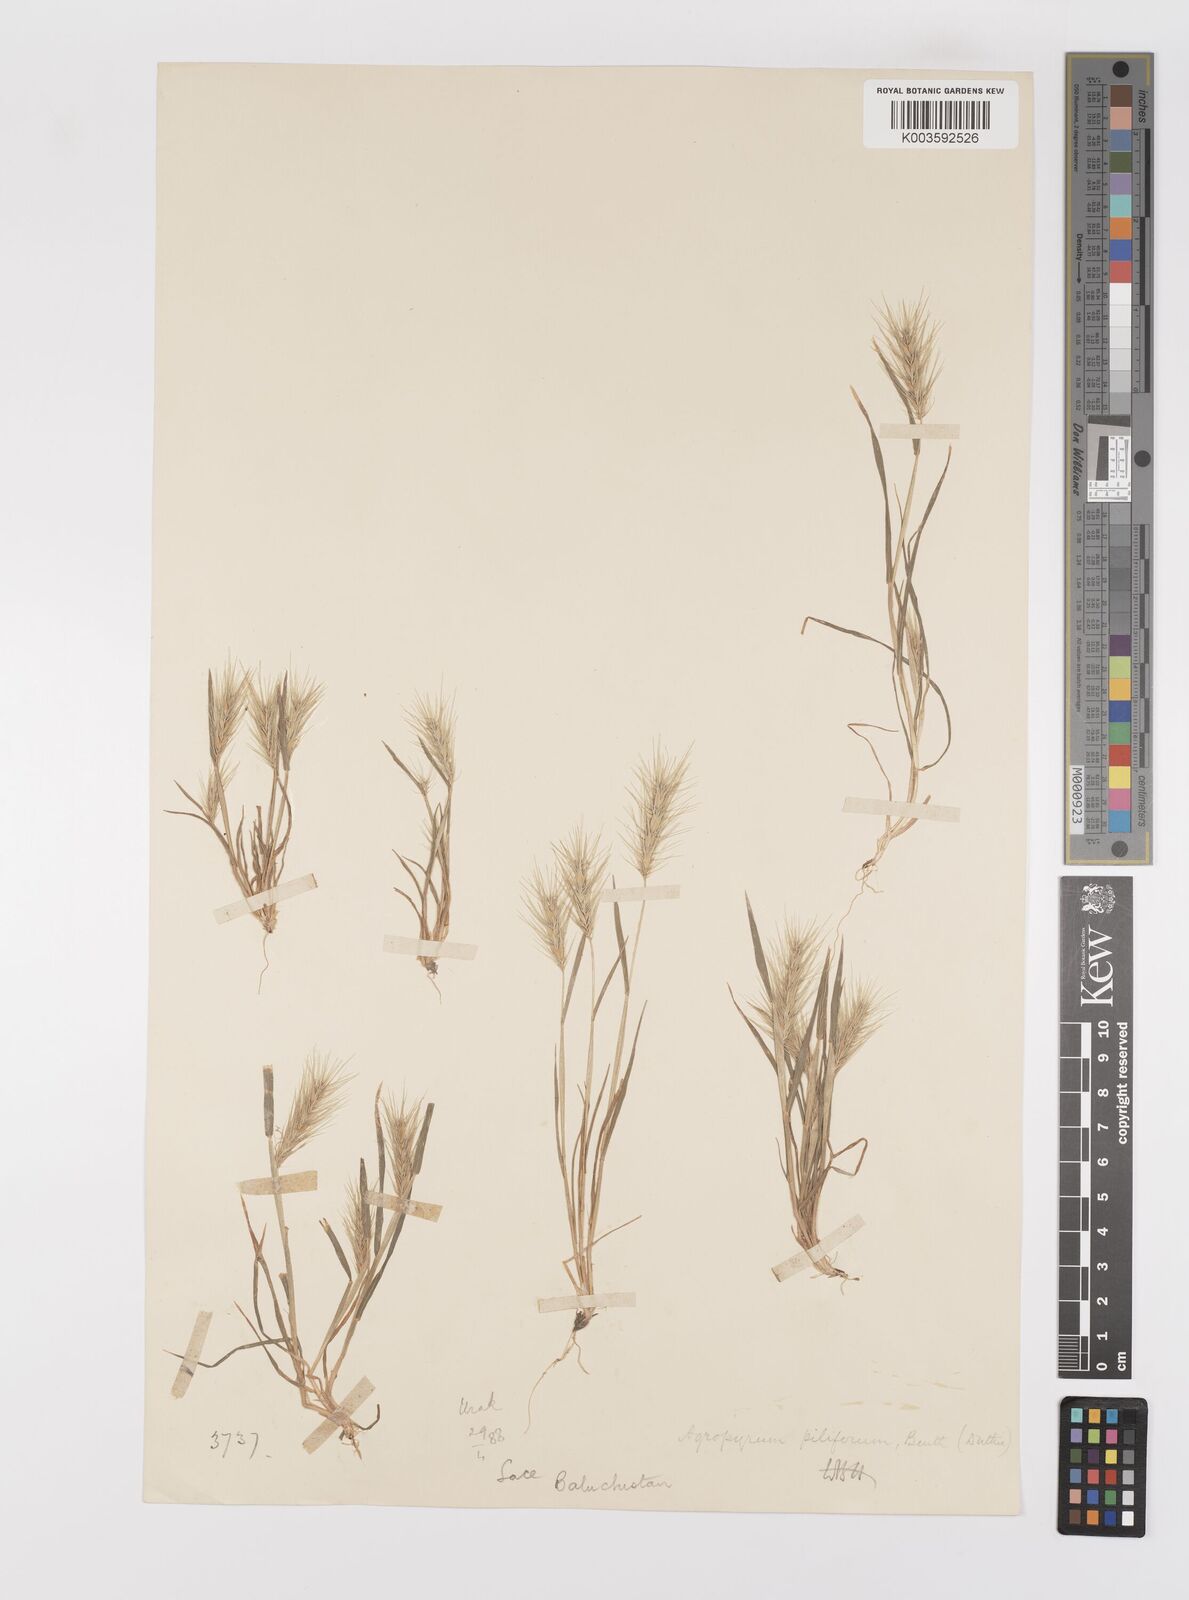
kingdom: Plantae
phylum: Tracheophyta
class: Liliopsida
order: Poales
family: Poaceae
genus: Heteranthelium
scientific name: Heteranthelium piliferum
